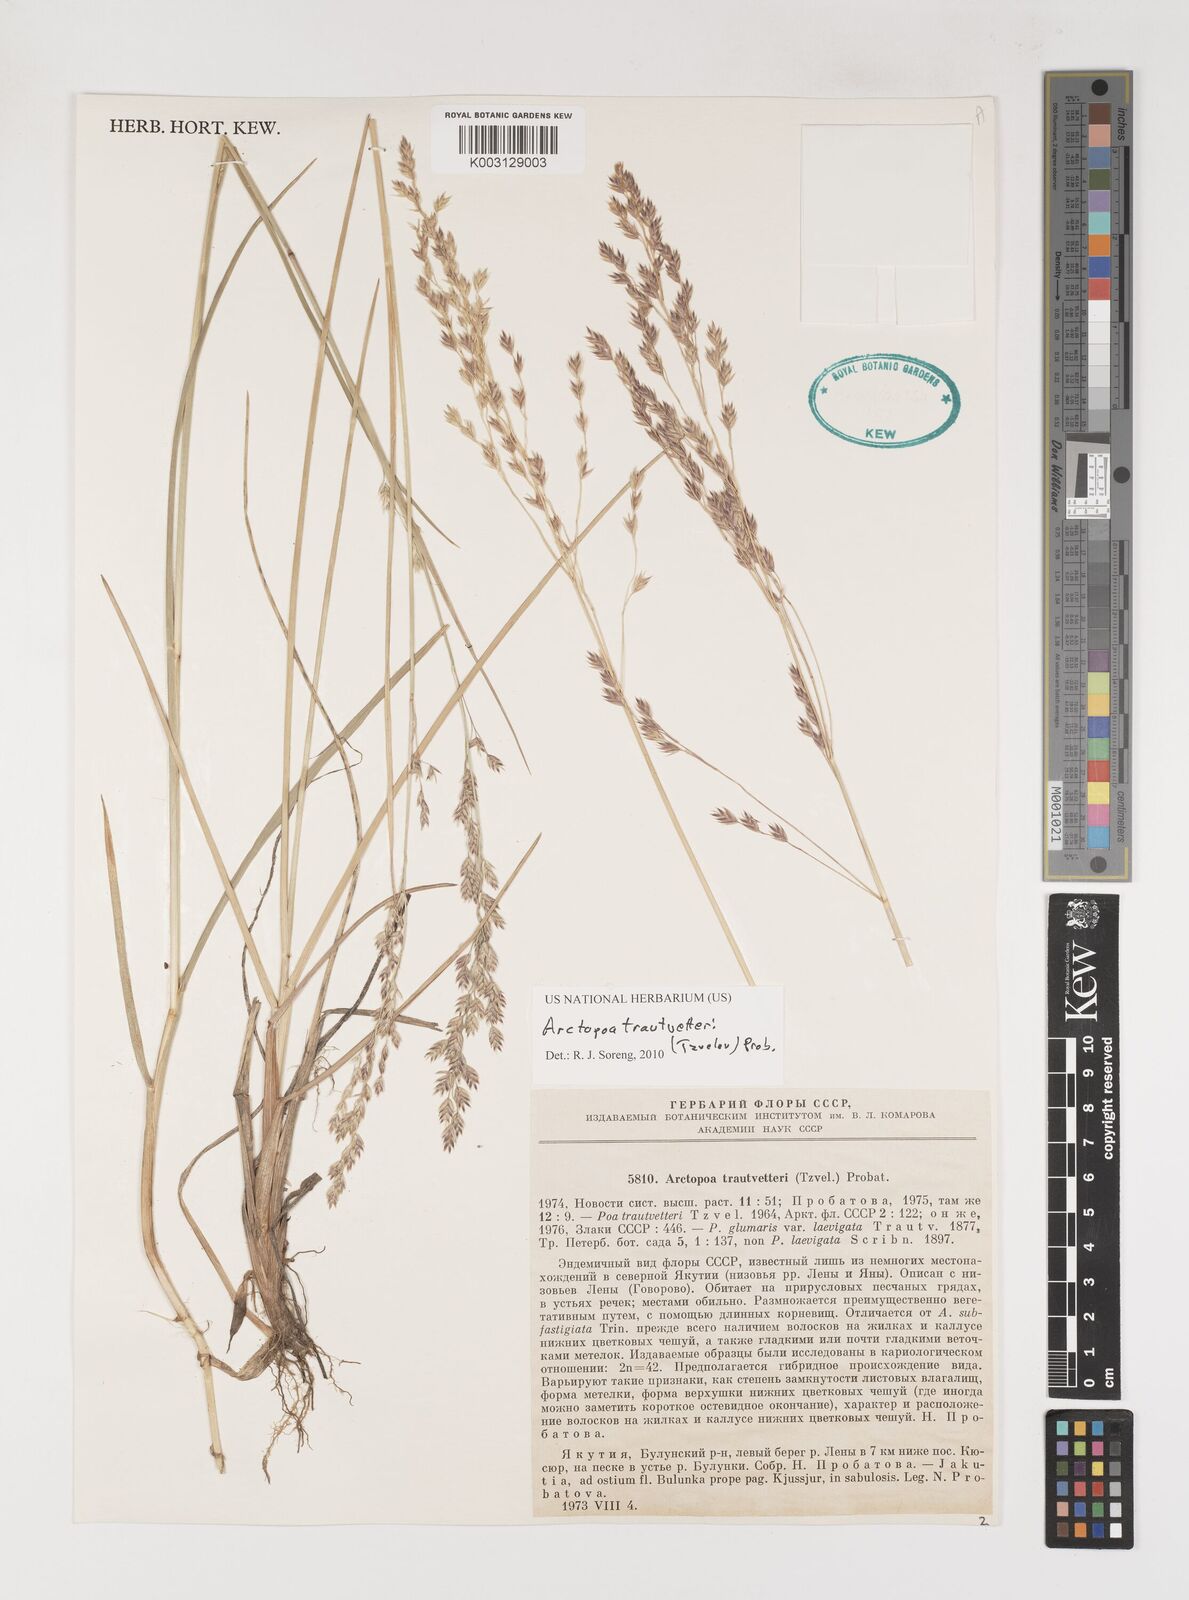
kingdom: Plantae
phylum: Tracheophyta
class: Liliopsida
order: Poales
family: Poaceae
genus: Poa
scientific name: Poa
